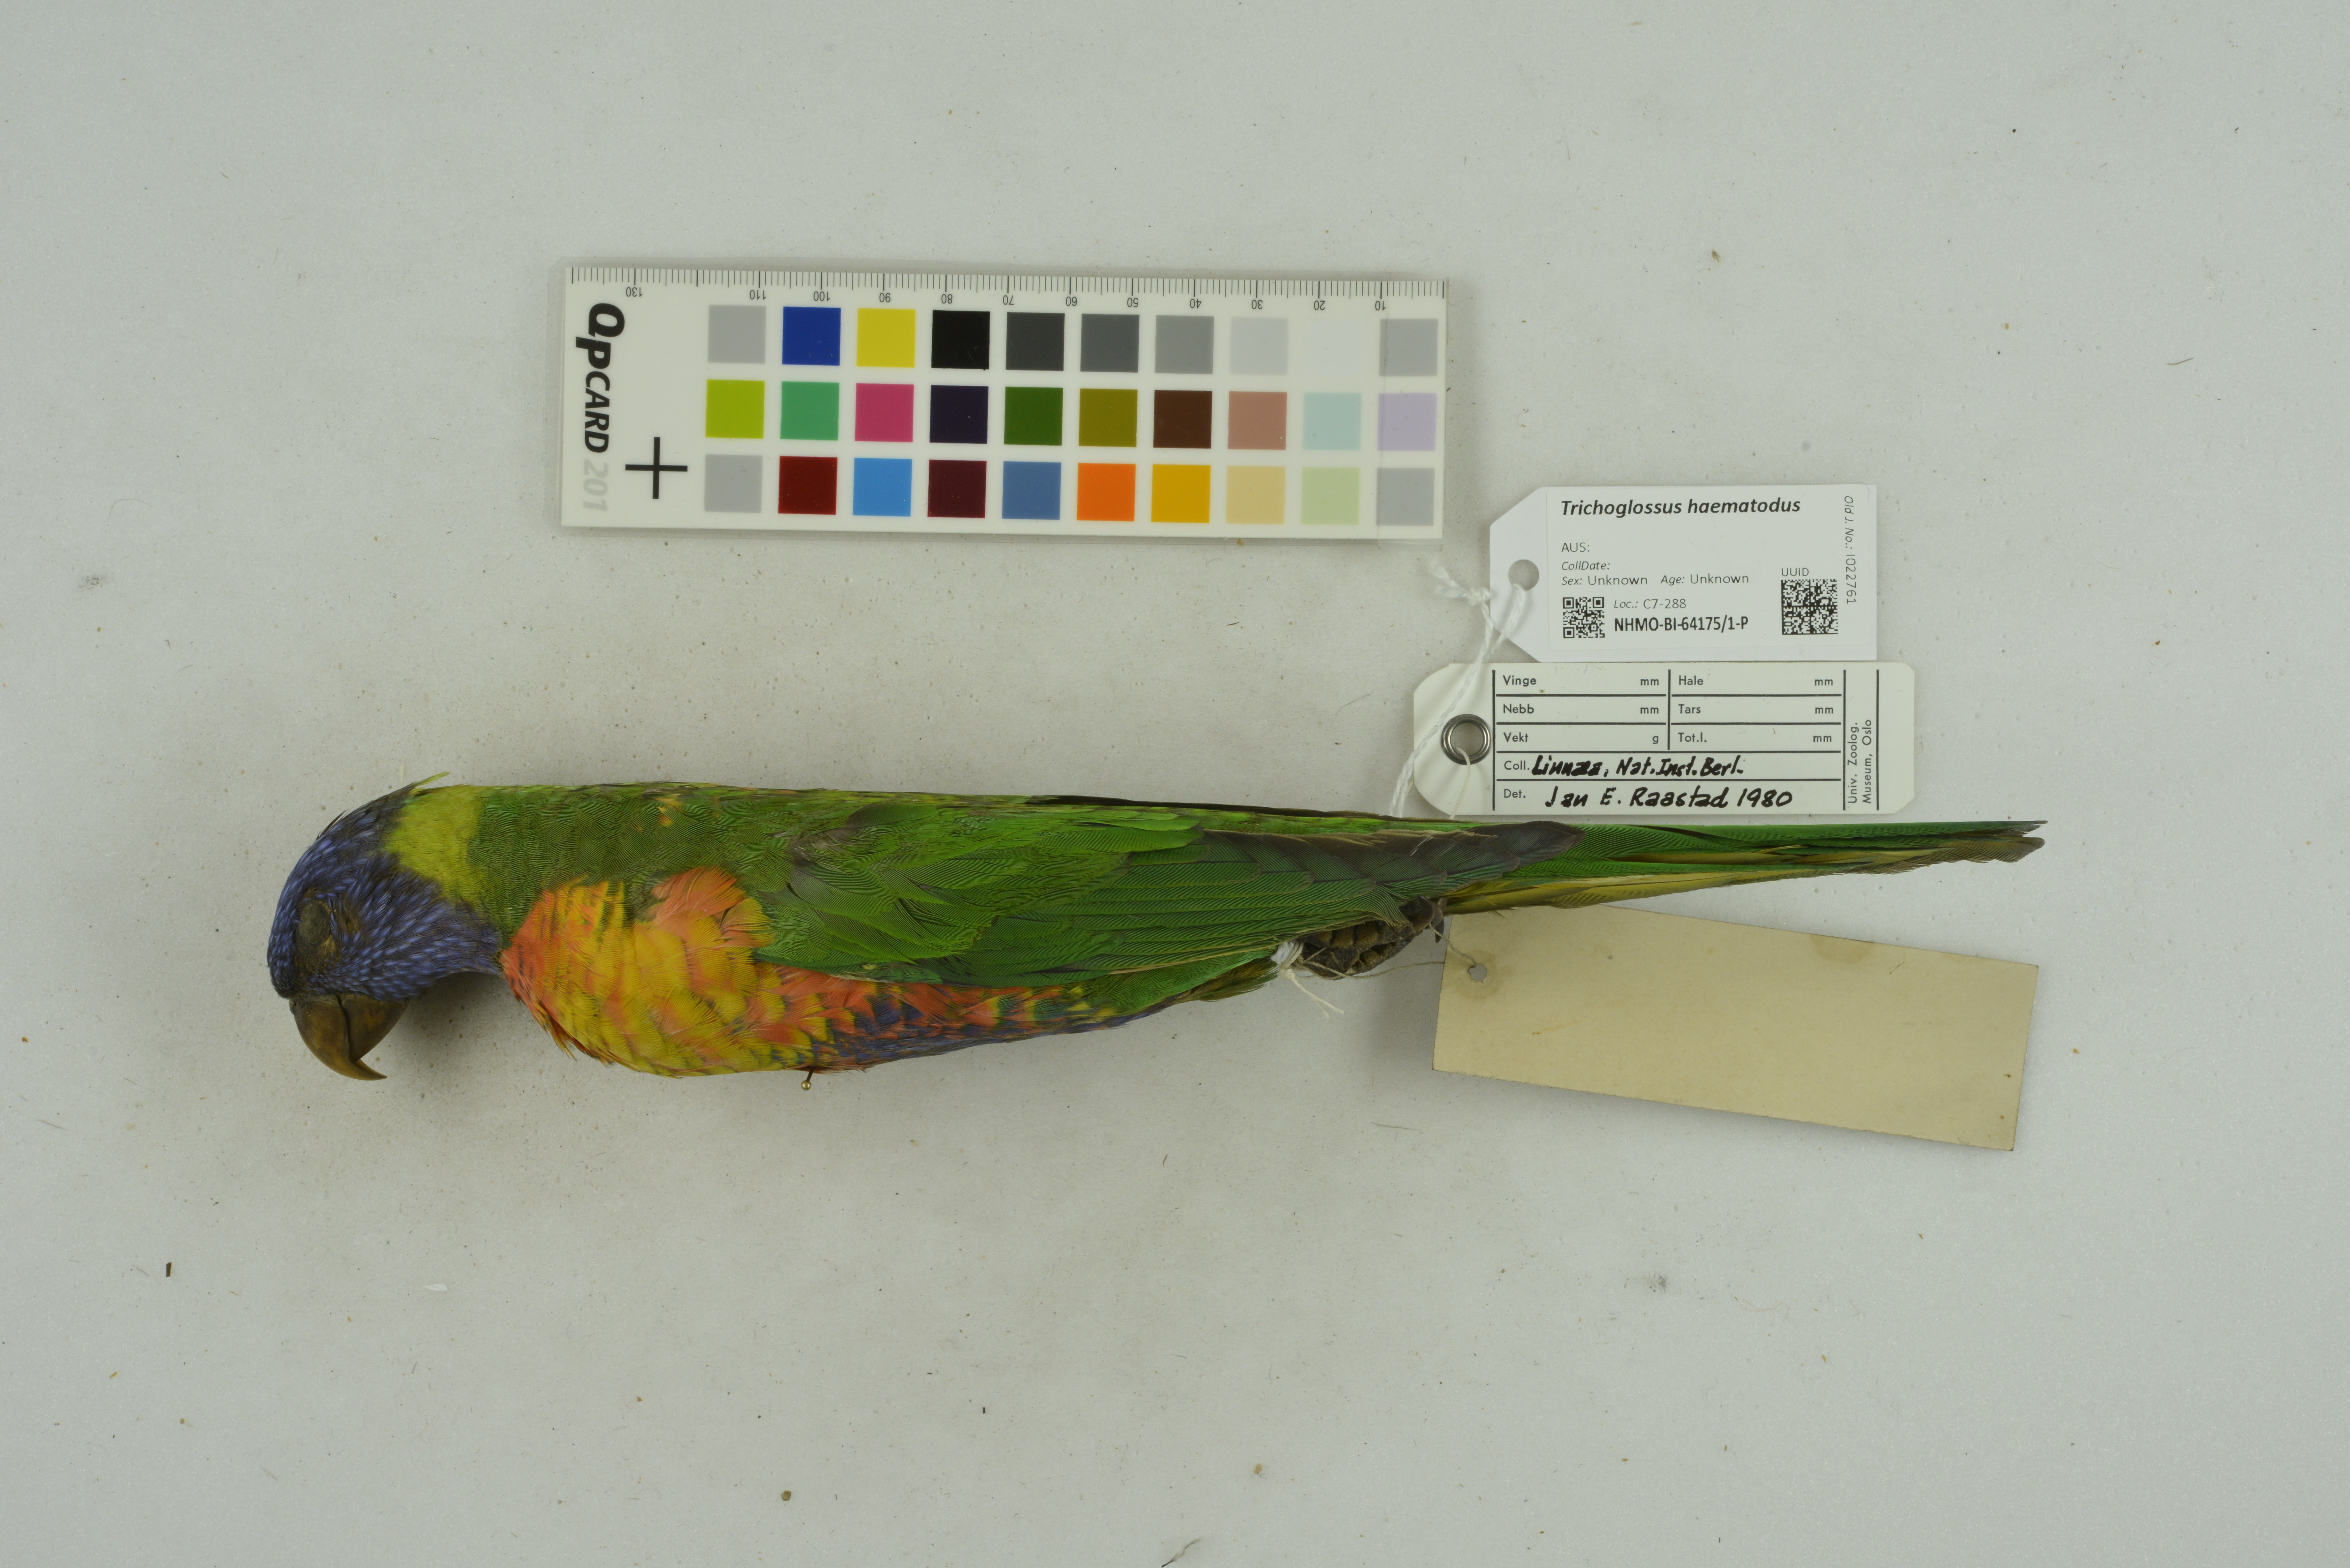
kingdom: Animalia
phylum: Chordata
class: Aves
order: Psittaciformes
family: Psittacidae
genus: Trichoglossus
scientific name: Trichoglossus haematodus
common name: Coconut lorikeet
